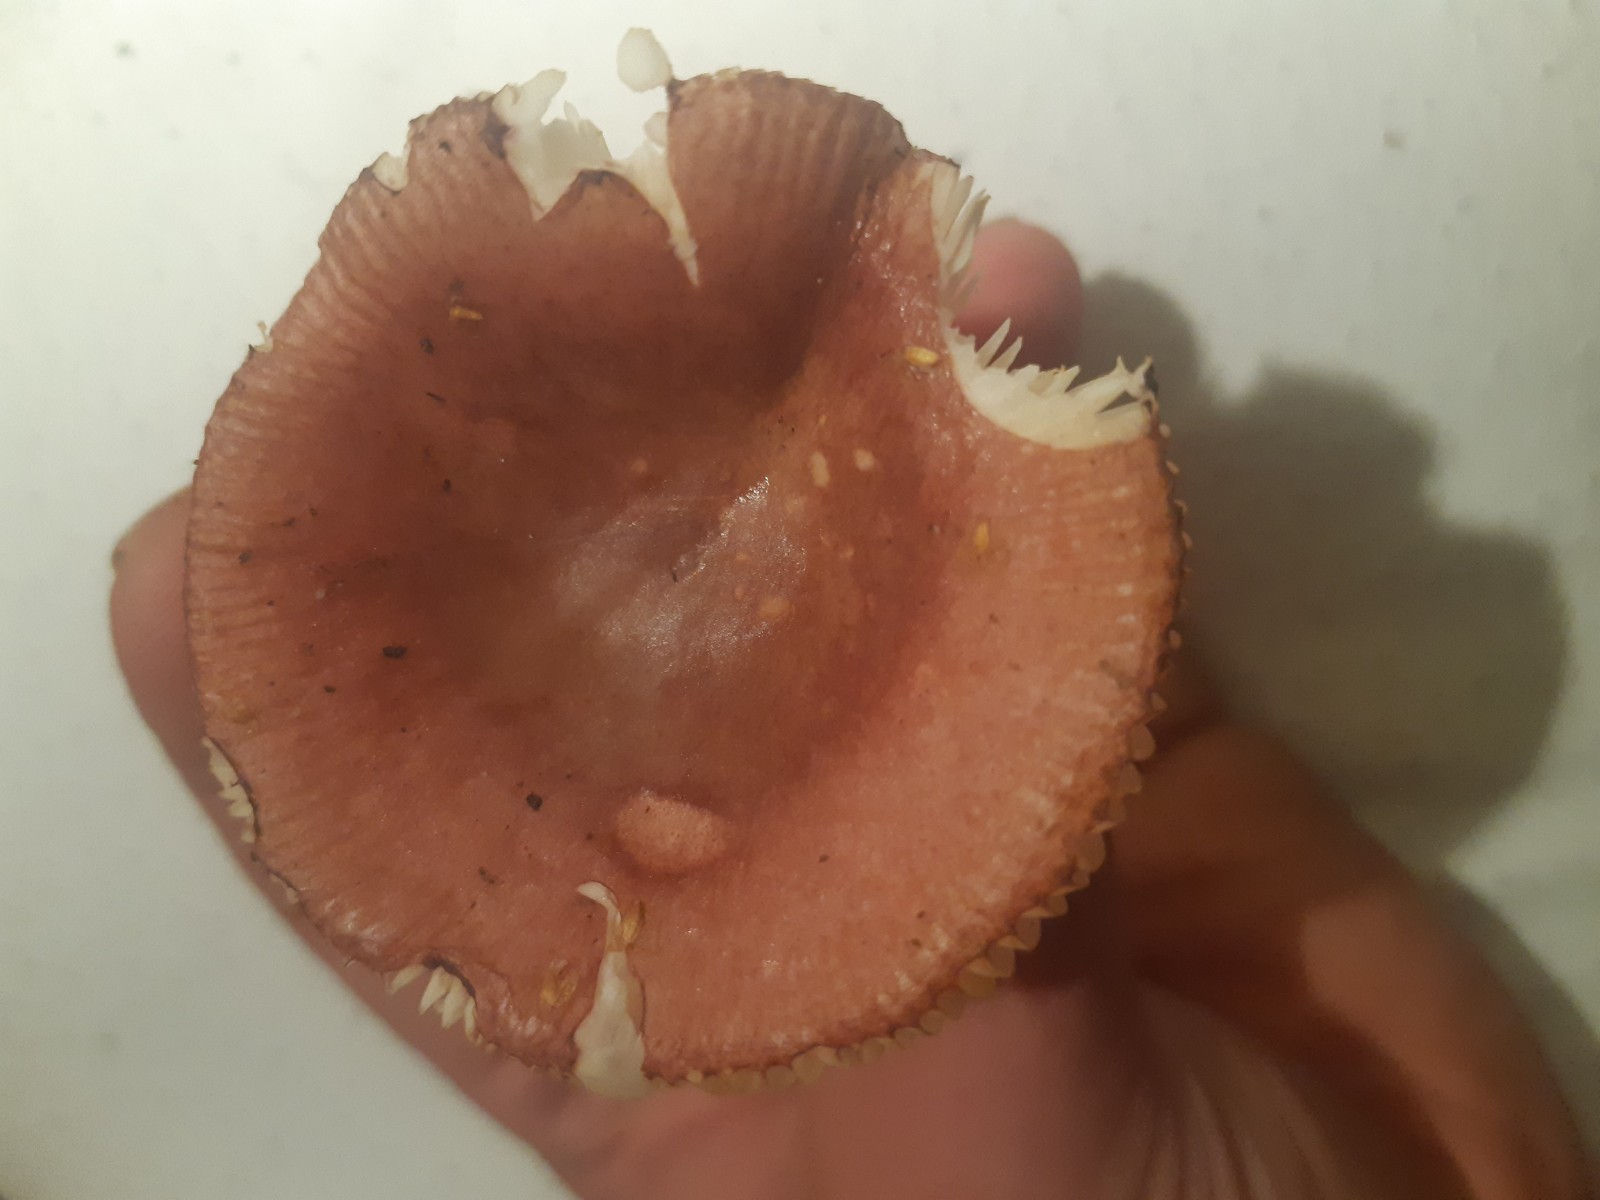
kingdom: Fungi
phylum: Basidiomycota
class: Agaricomycetes
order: Russulales
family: Russulaceae
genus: Russula
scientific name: Russula
